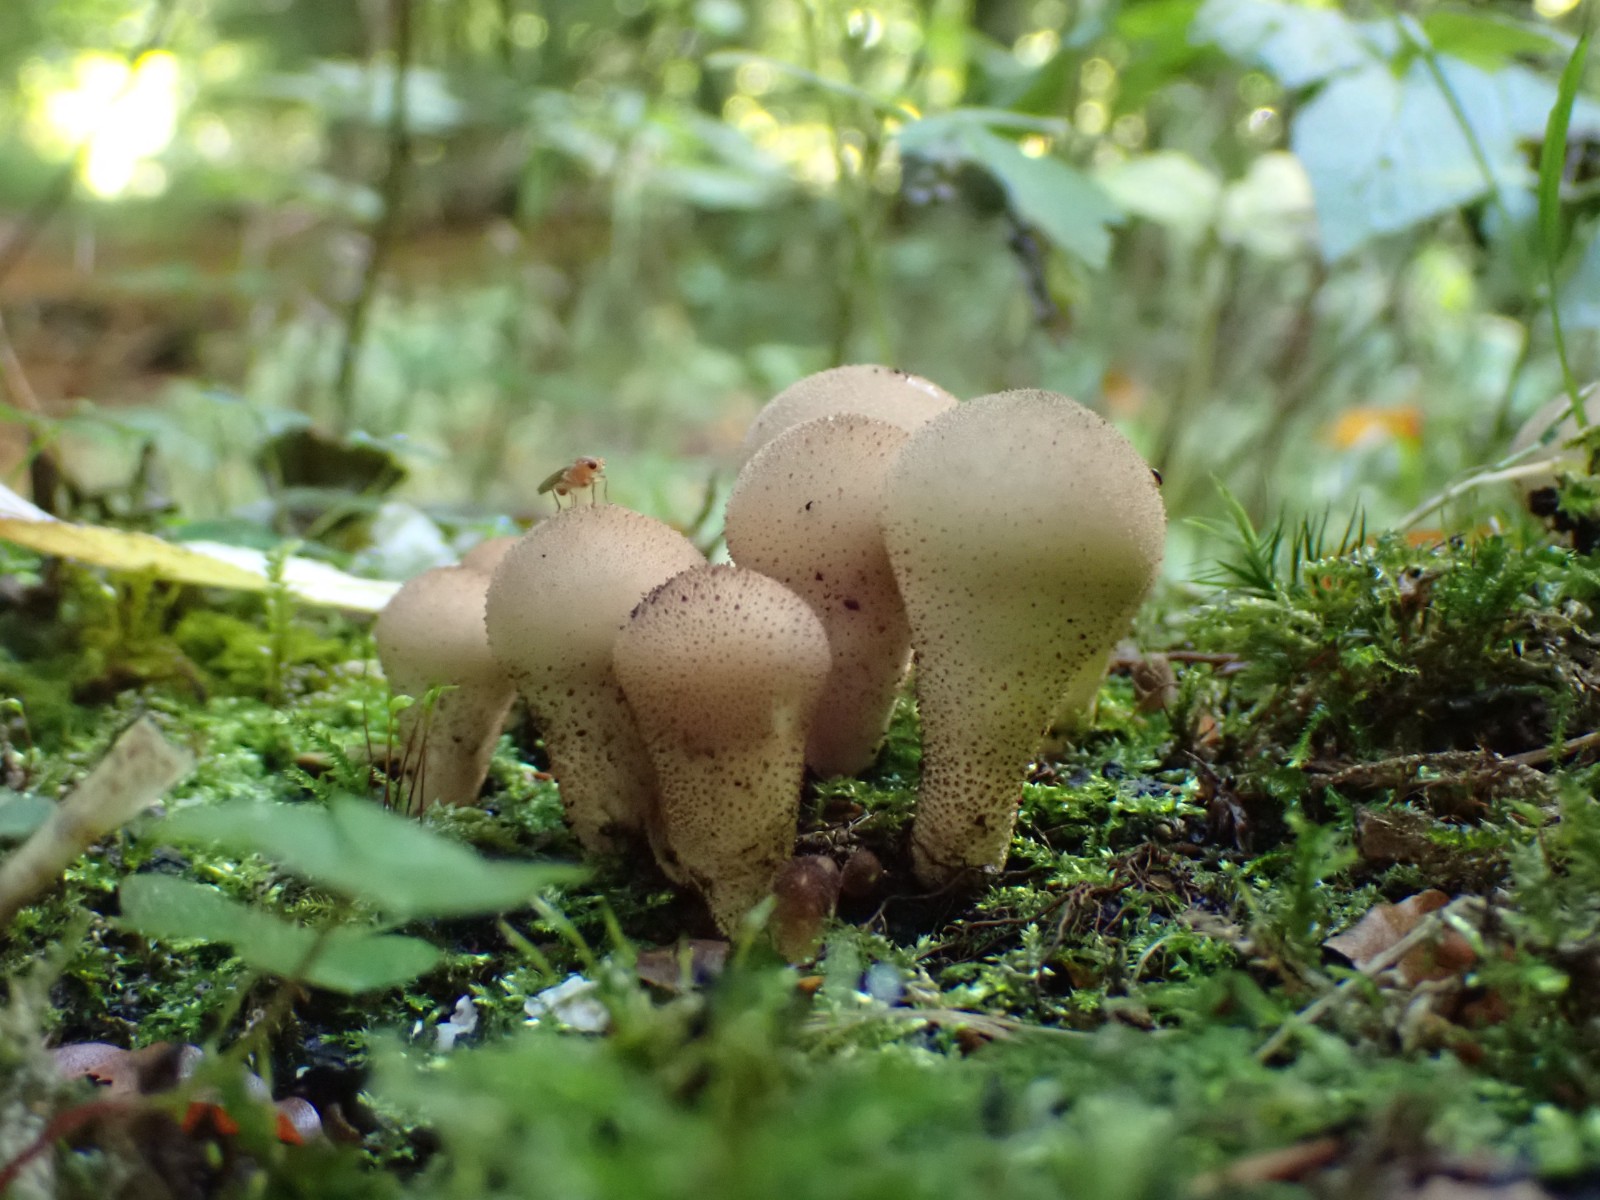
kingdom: Fungi
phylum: Basidiomycota
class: Agaricomycetes
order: Agaricales
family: Lycoperdaceae
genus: Apioperdon
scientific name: Apioperdon pyriforme
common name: pære-støvbold
